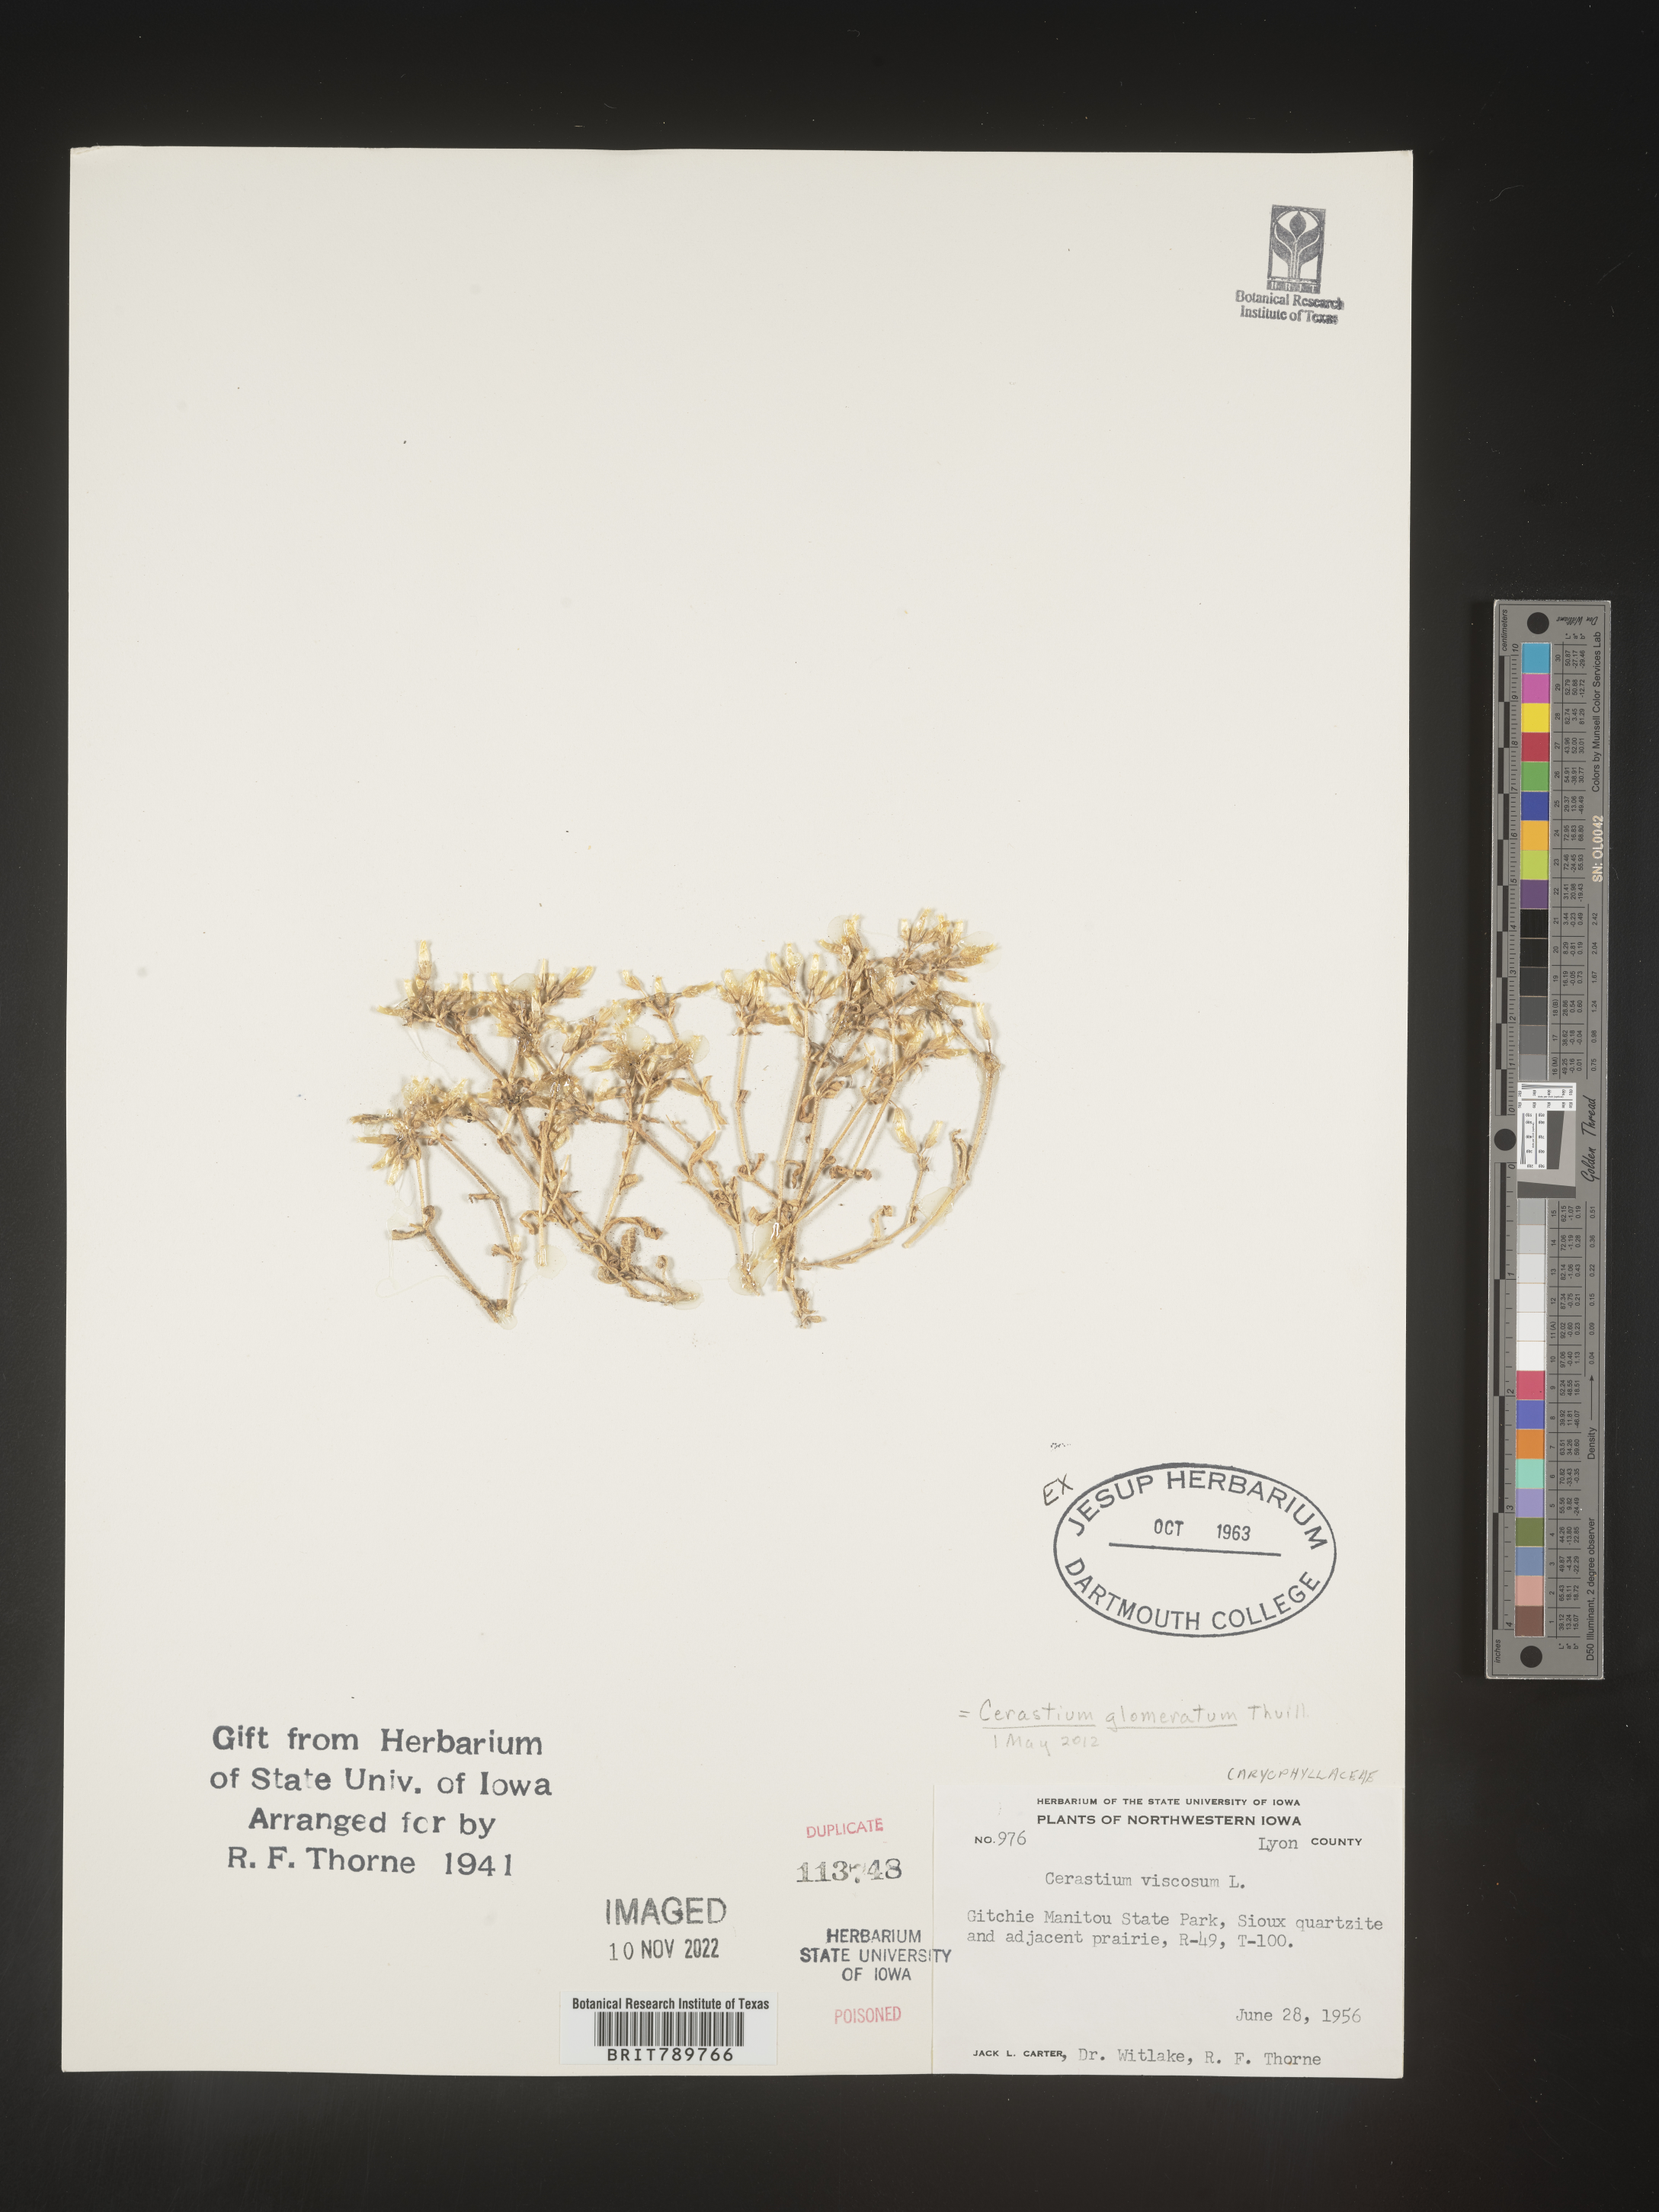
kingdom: Plantae
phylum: Tracheophyta
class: Magnoliopsida
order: Caryophyllales
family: Caryophyllaceae
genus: Cerastium
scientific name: Cerastium glomeratum
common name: Sticky chickweed
